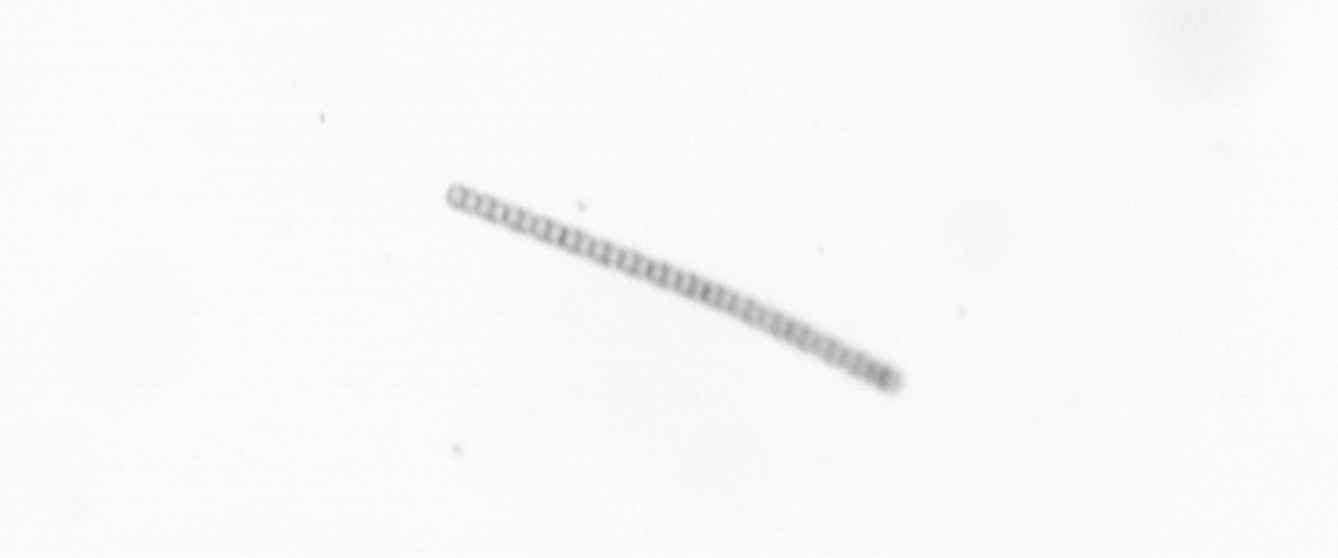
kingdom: Chromista
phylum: Ochrophyta
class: Bacillariophyceae
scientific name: Bacillariophyceae
